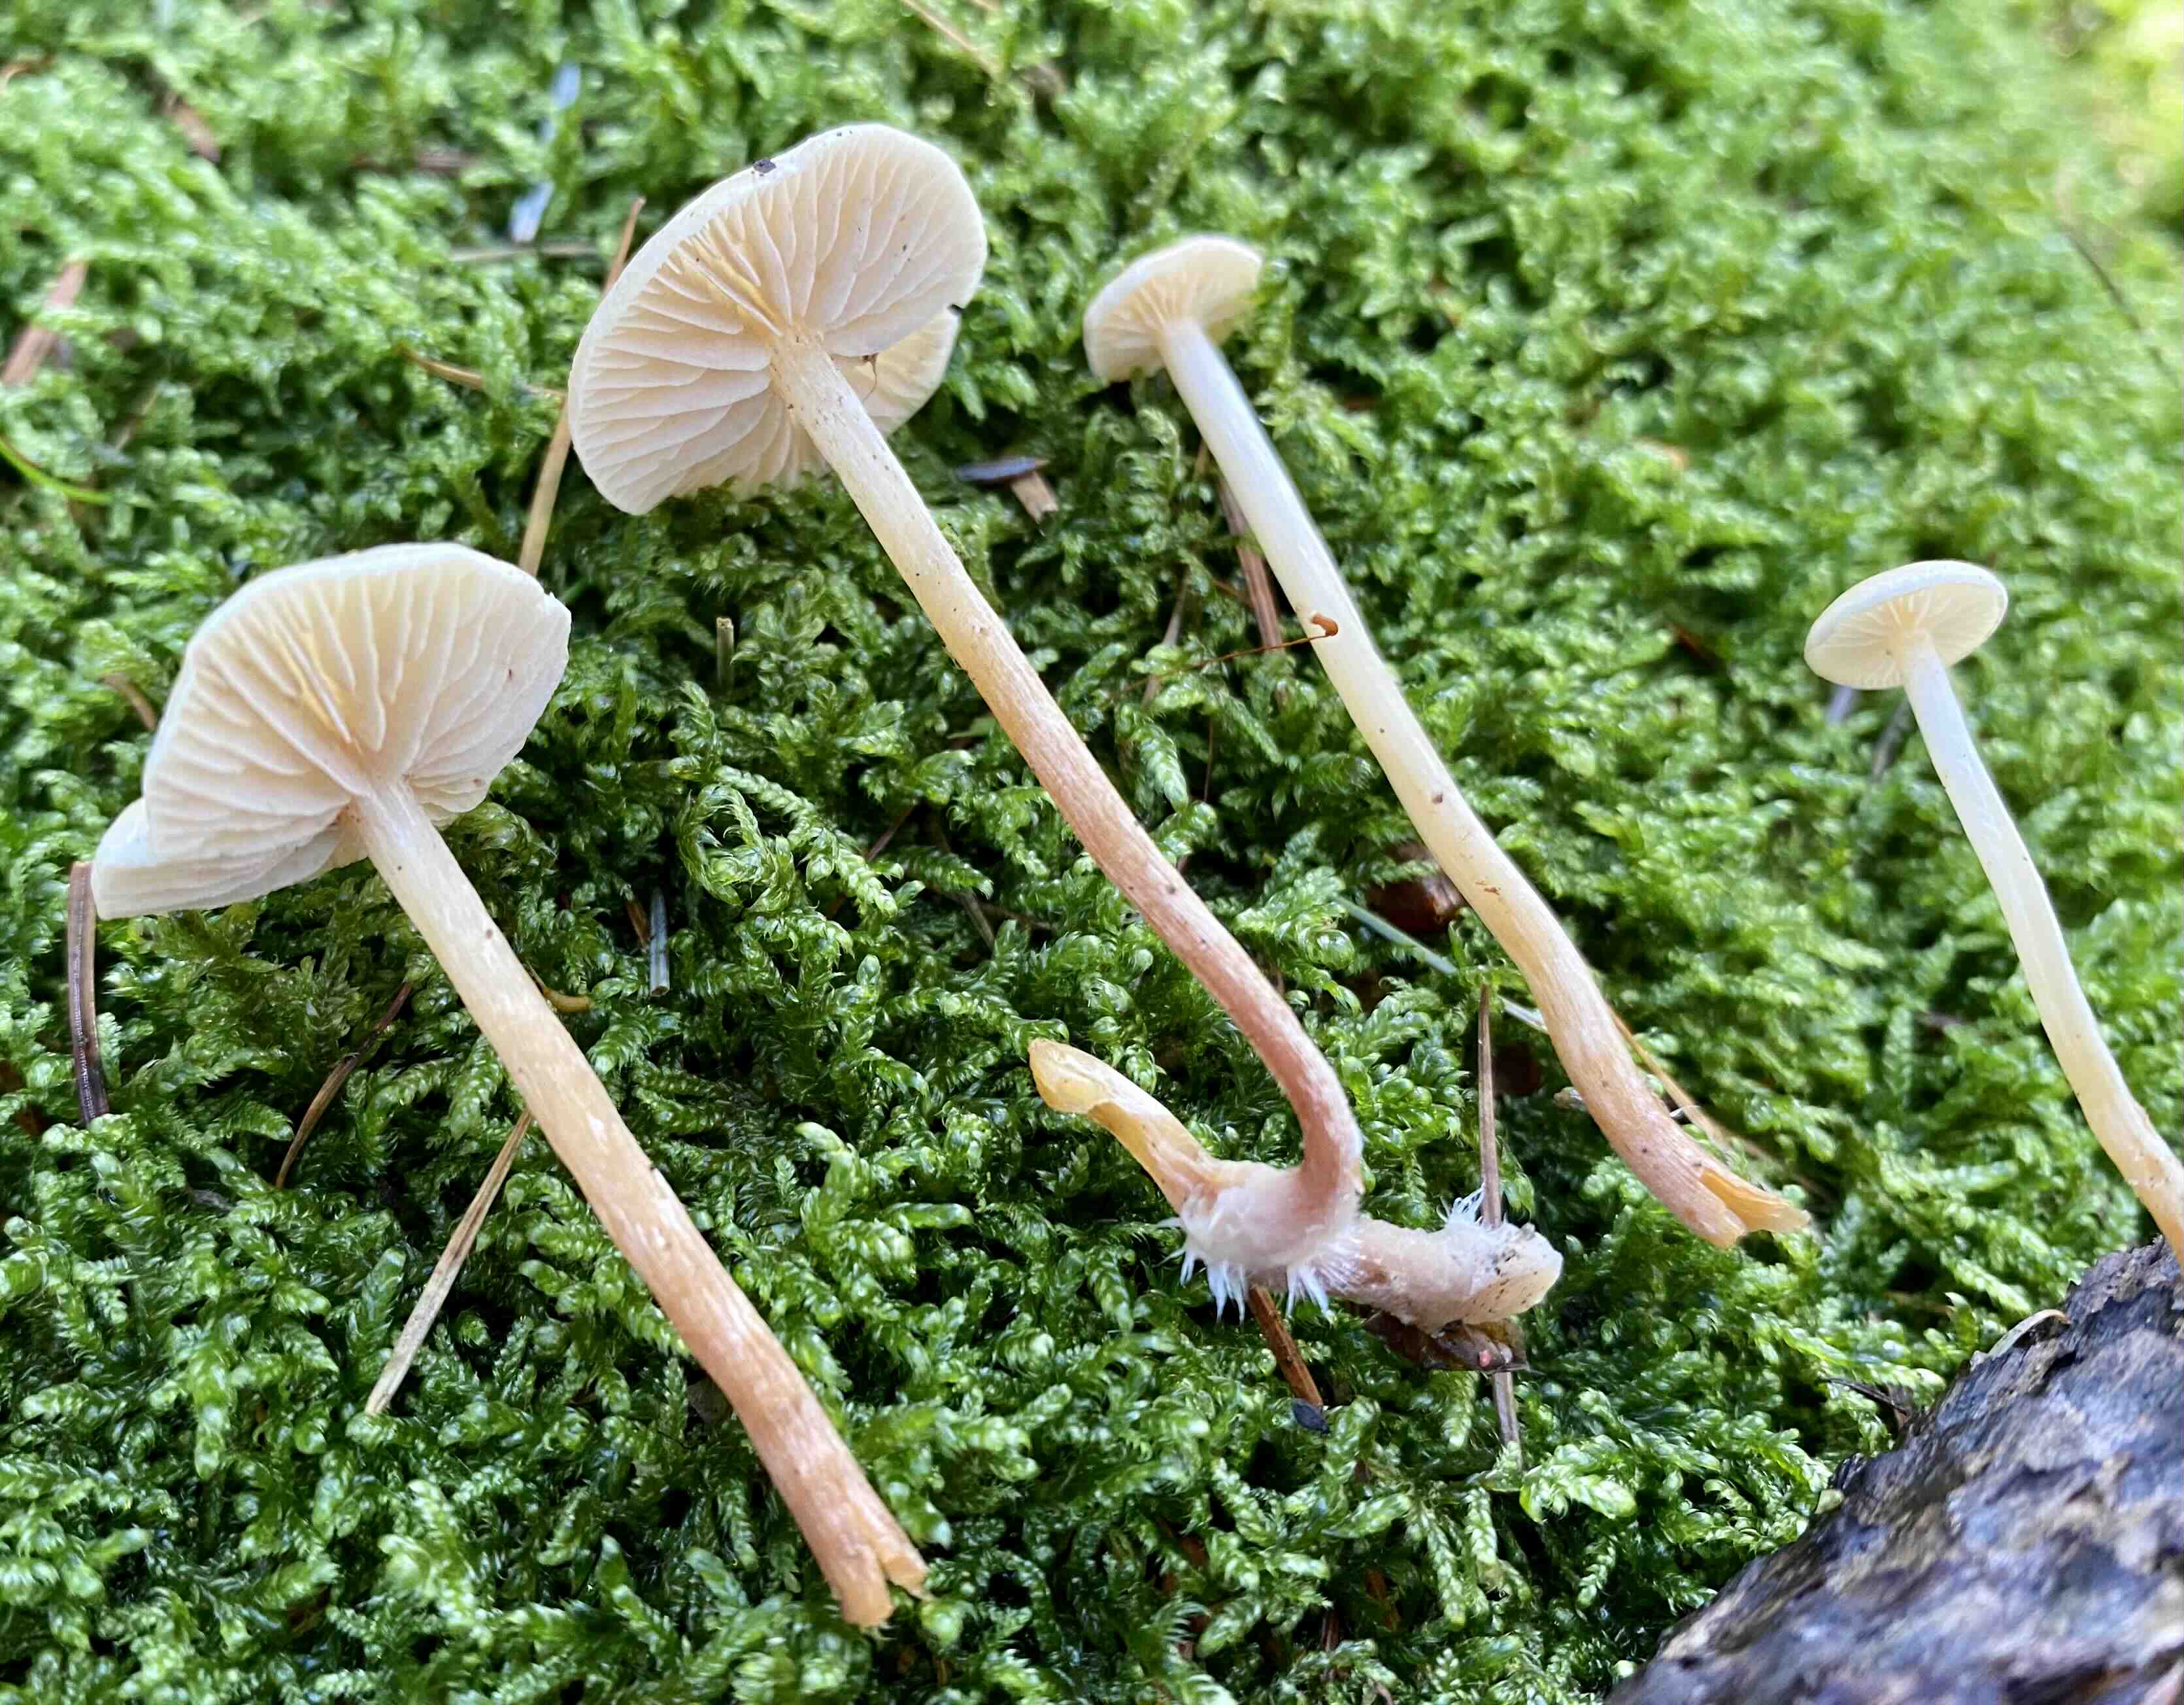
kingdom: Fungi
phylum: Basidiomycota
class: Agaricomycetes
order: Agaricales
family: Strophariaceae
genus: Hypholoma
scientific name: Hypholoma elongatum
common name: slank svovlhat
